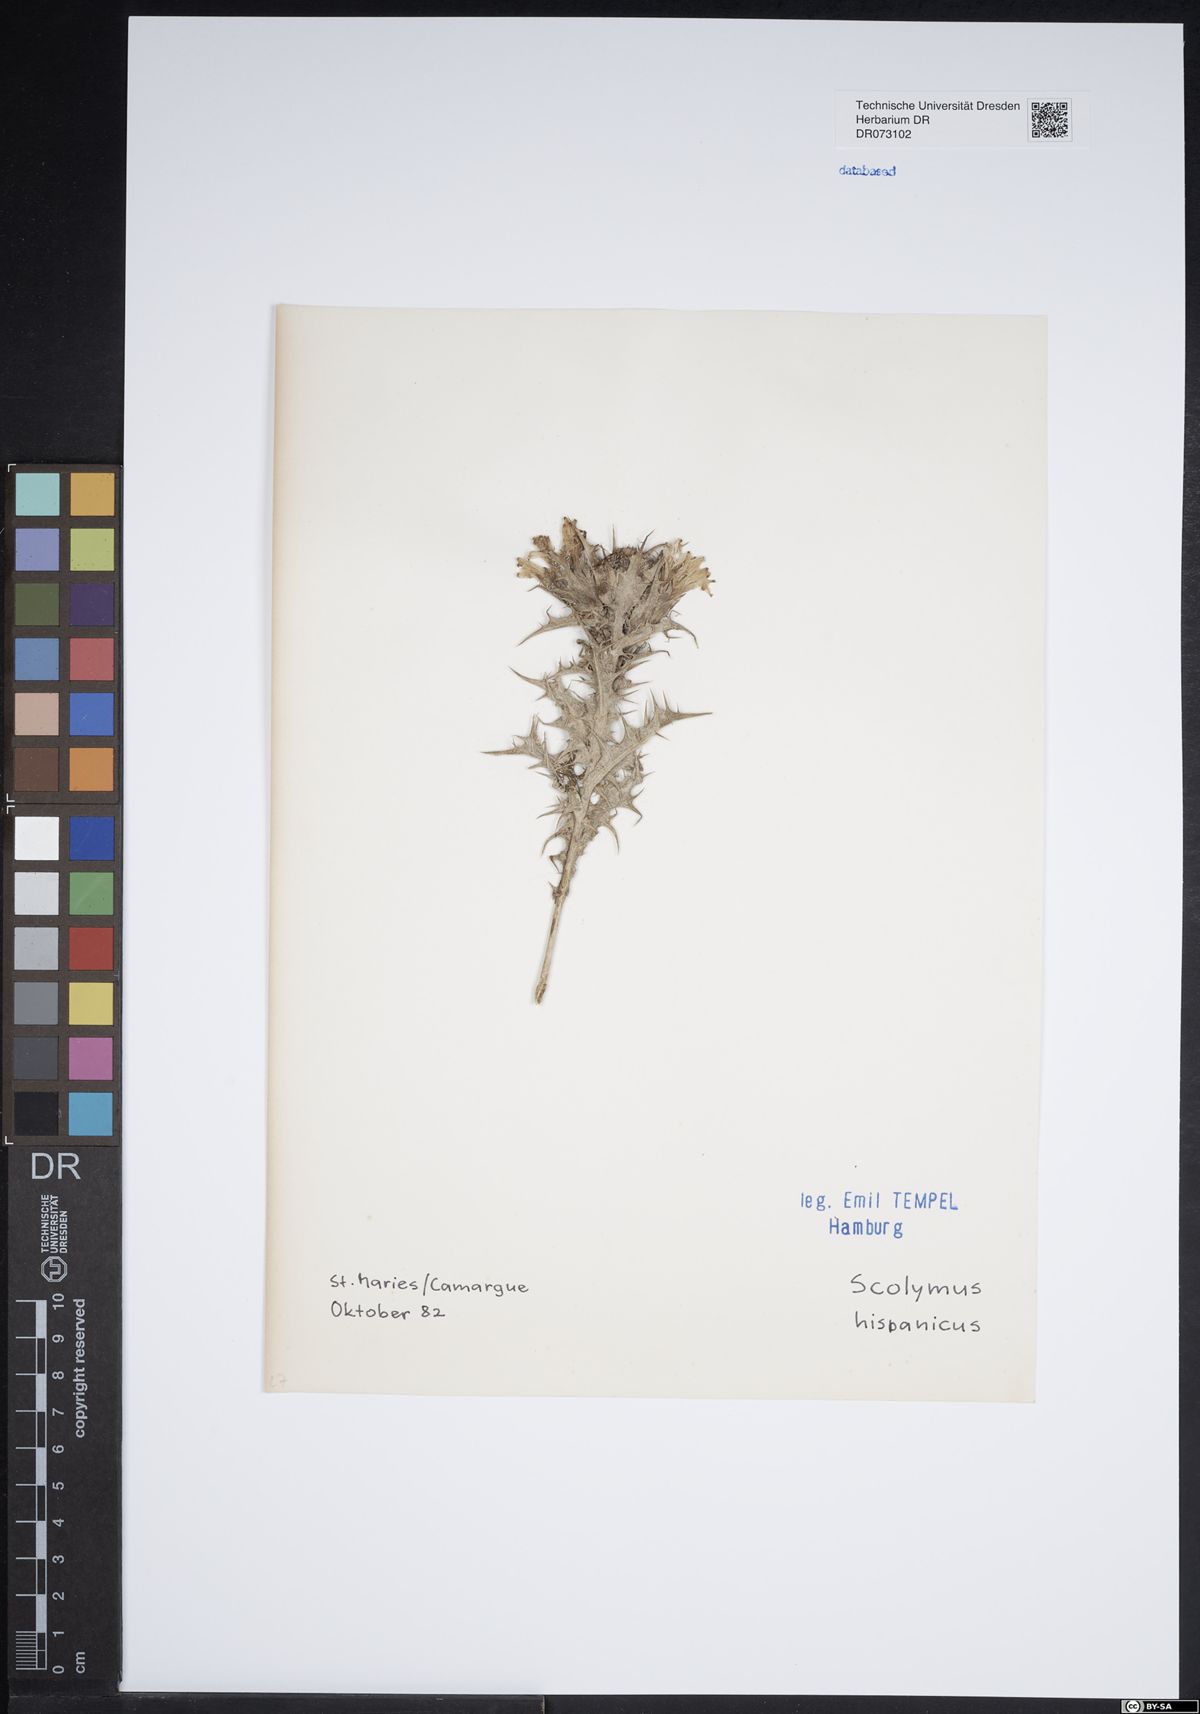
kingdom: Plantae
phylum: Tracheophyta
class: Magnoliopsida
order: Asterales
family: Asteraceae
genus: Ambrosia
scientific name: Ambrosia psilostachya
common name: Perennial ragweed
